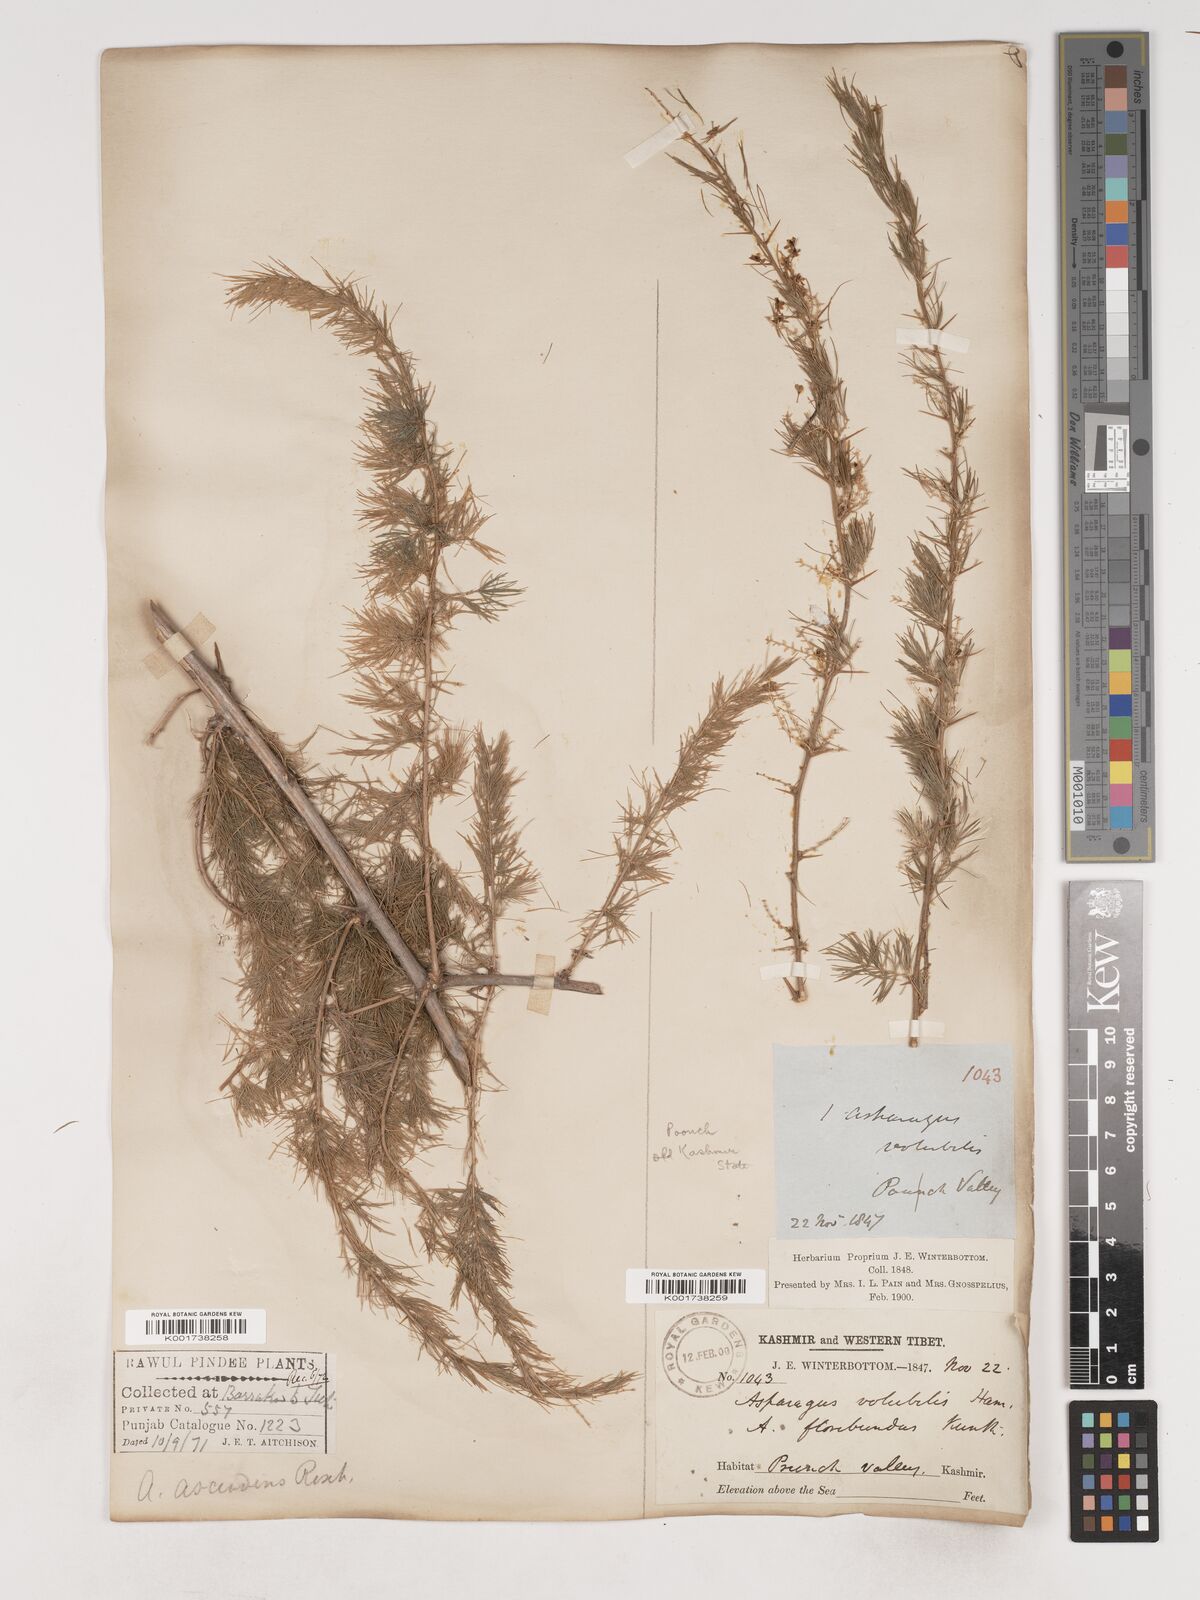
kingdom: Plantae
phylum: Tracheophyta
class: Liliopsida
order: Asparagales
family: Asparagaceae
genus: Asparagus
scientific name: Asparagus adscendens
